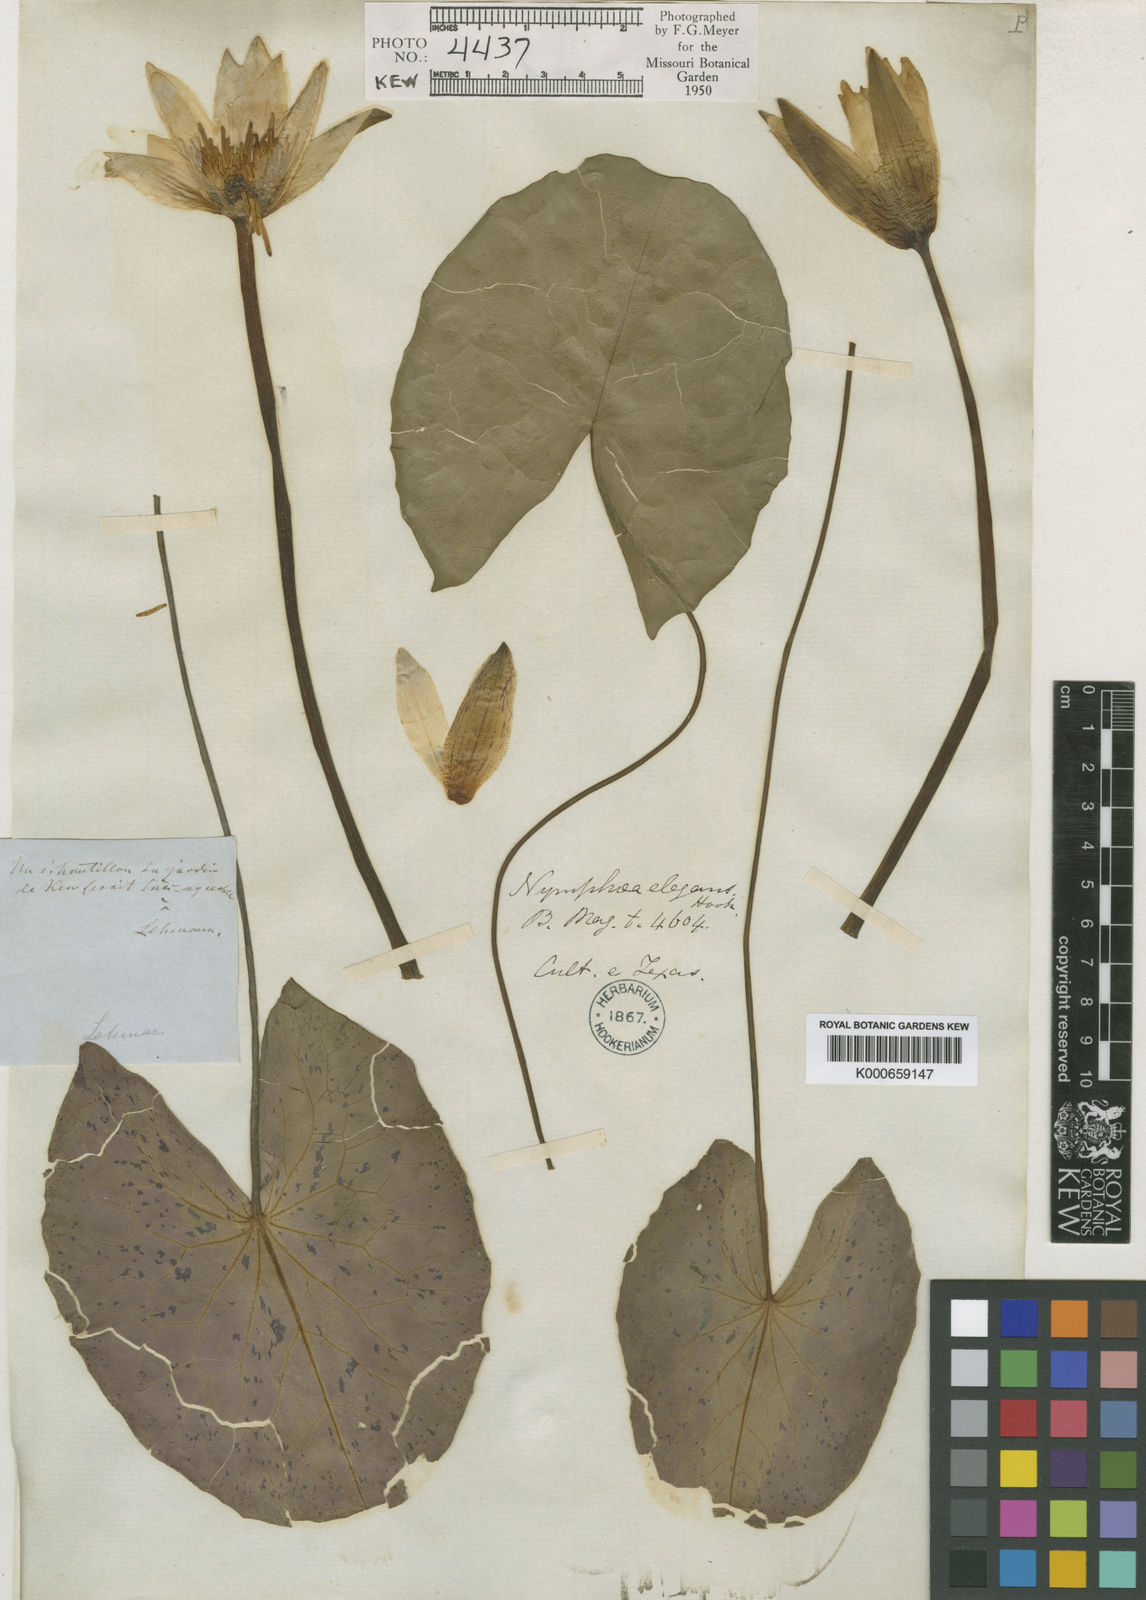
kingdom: Plantae
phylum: Tracheophyta
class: Magnoliopsida
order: Nymphaeales
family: Nymphaeaceae
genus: Nymphaea
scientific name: Nymphaea elegans
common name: Blue water-lily
